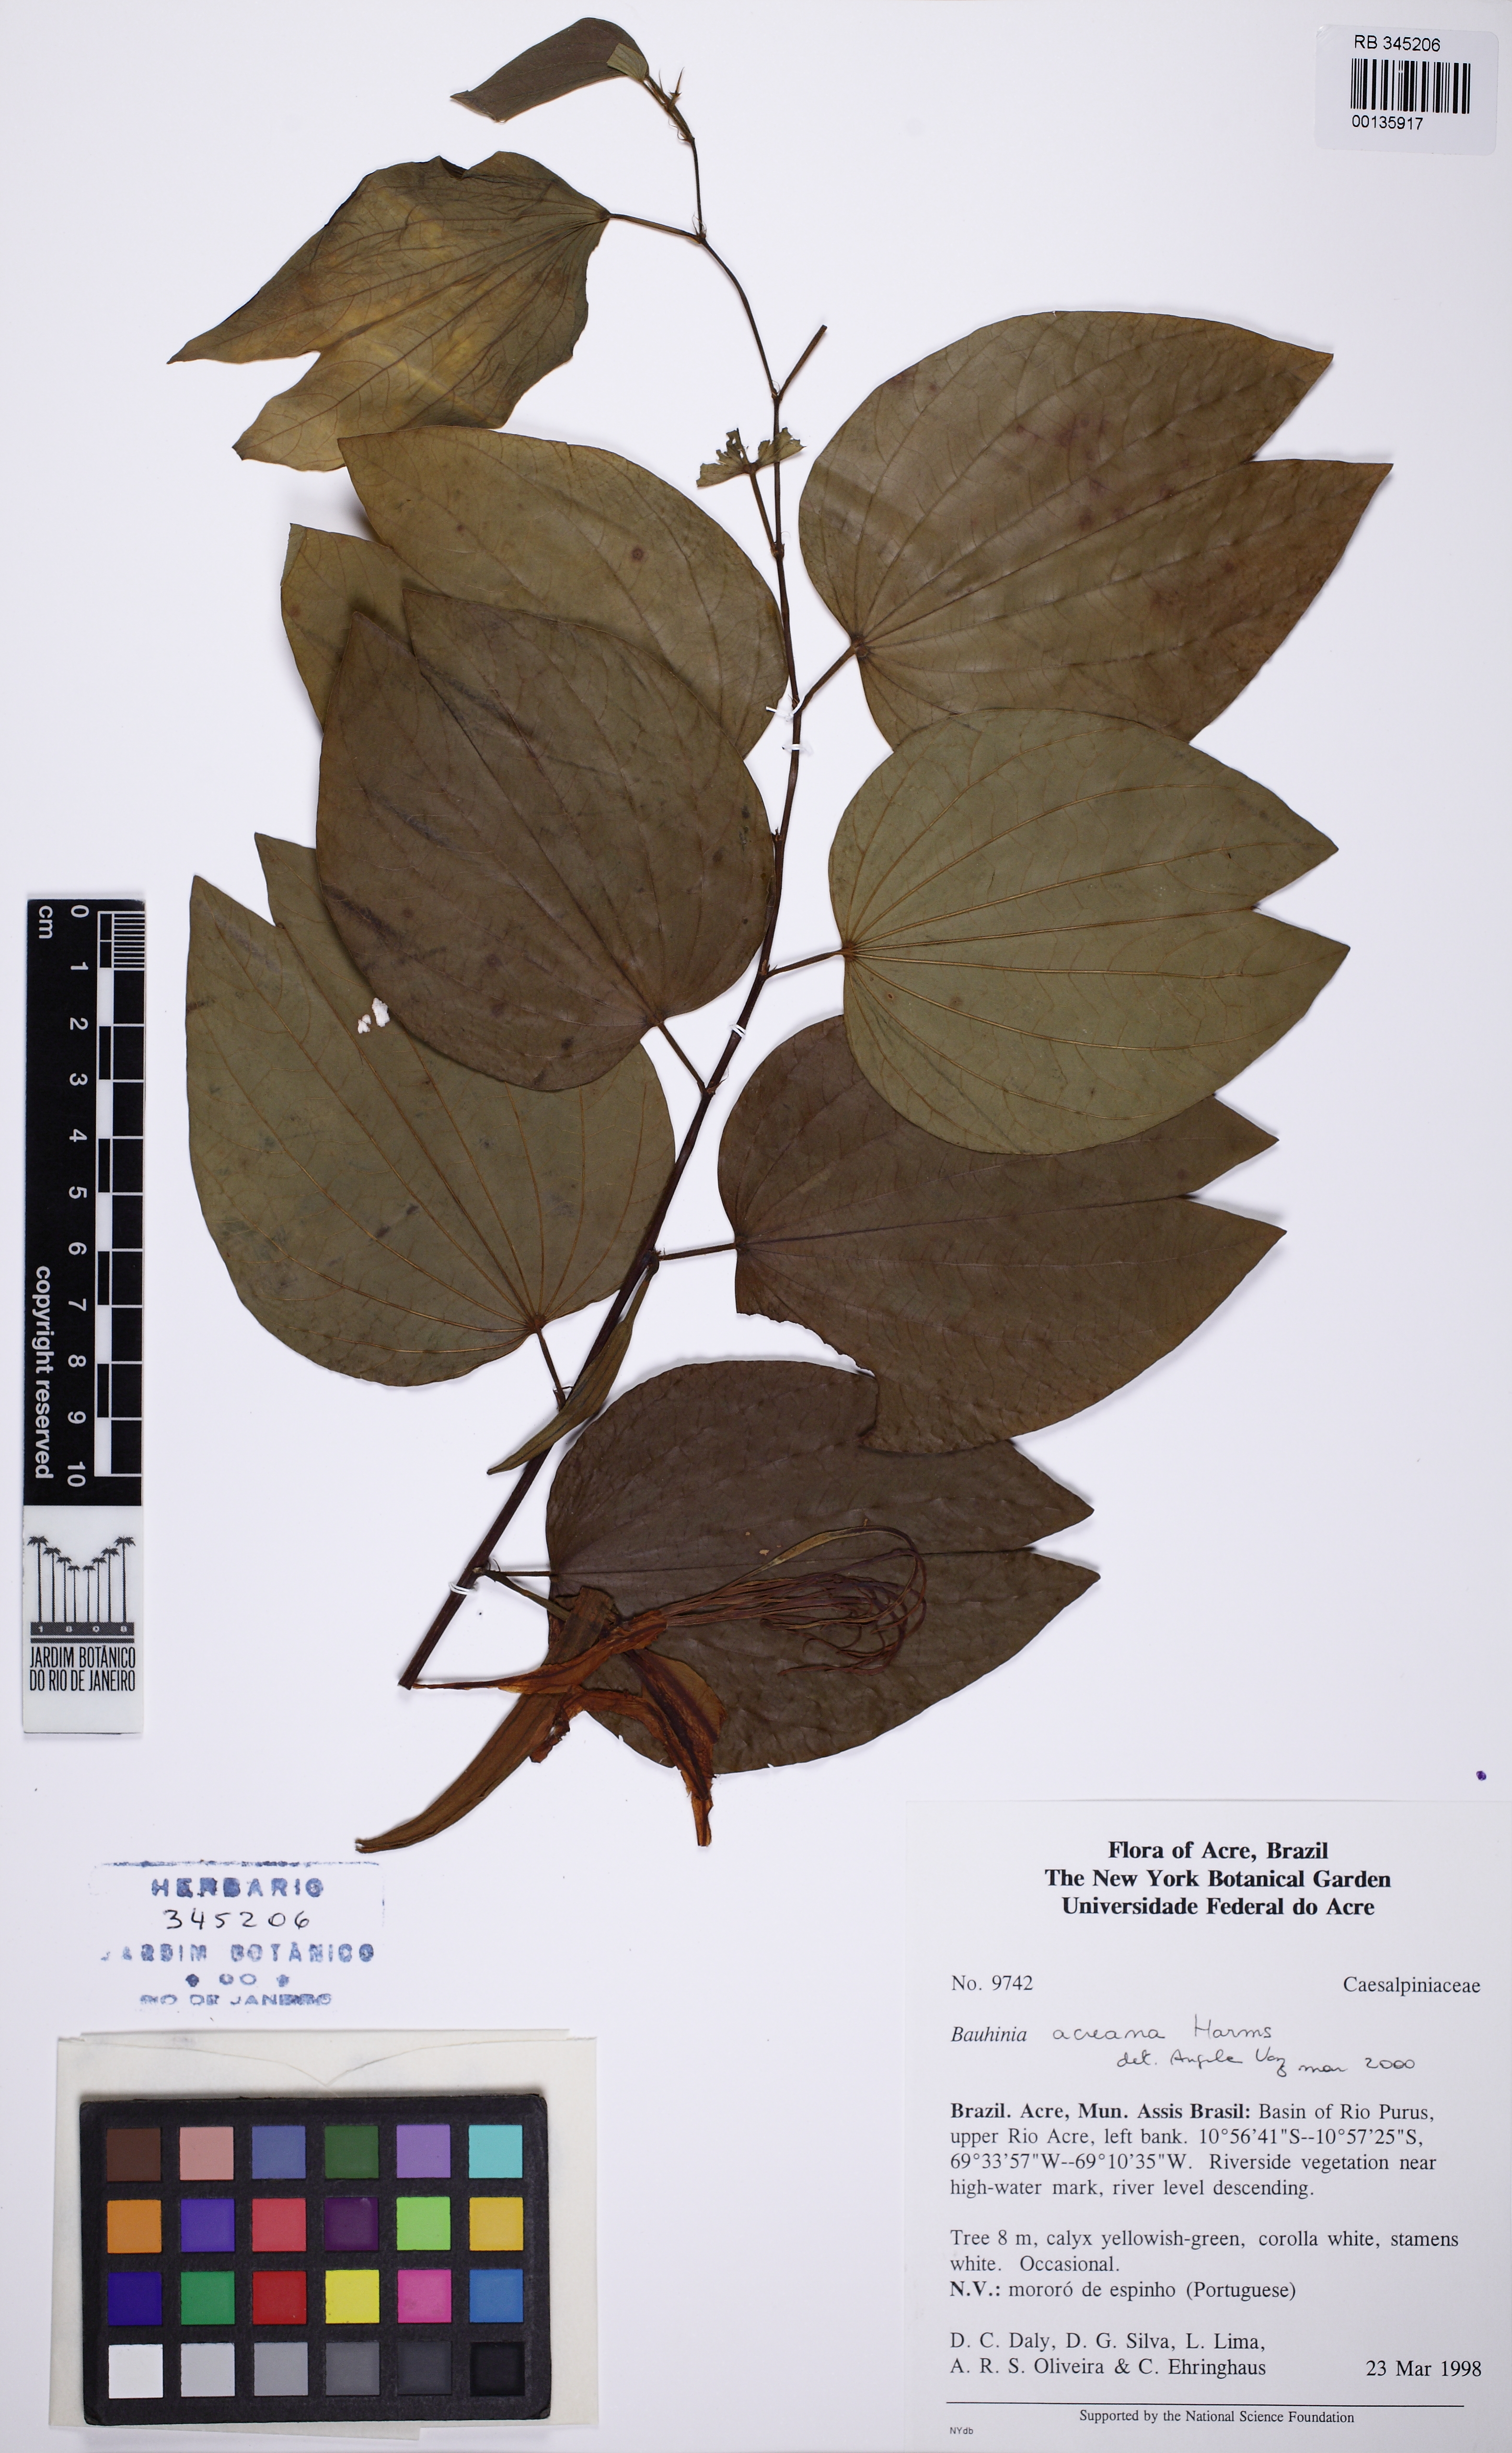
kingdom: Plantae
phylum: Tracheophyta
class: Magnoliopsida
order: Fabales
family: Fabaceae
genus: Bauhinia
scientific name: Bauhinia acreana
